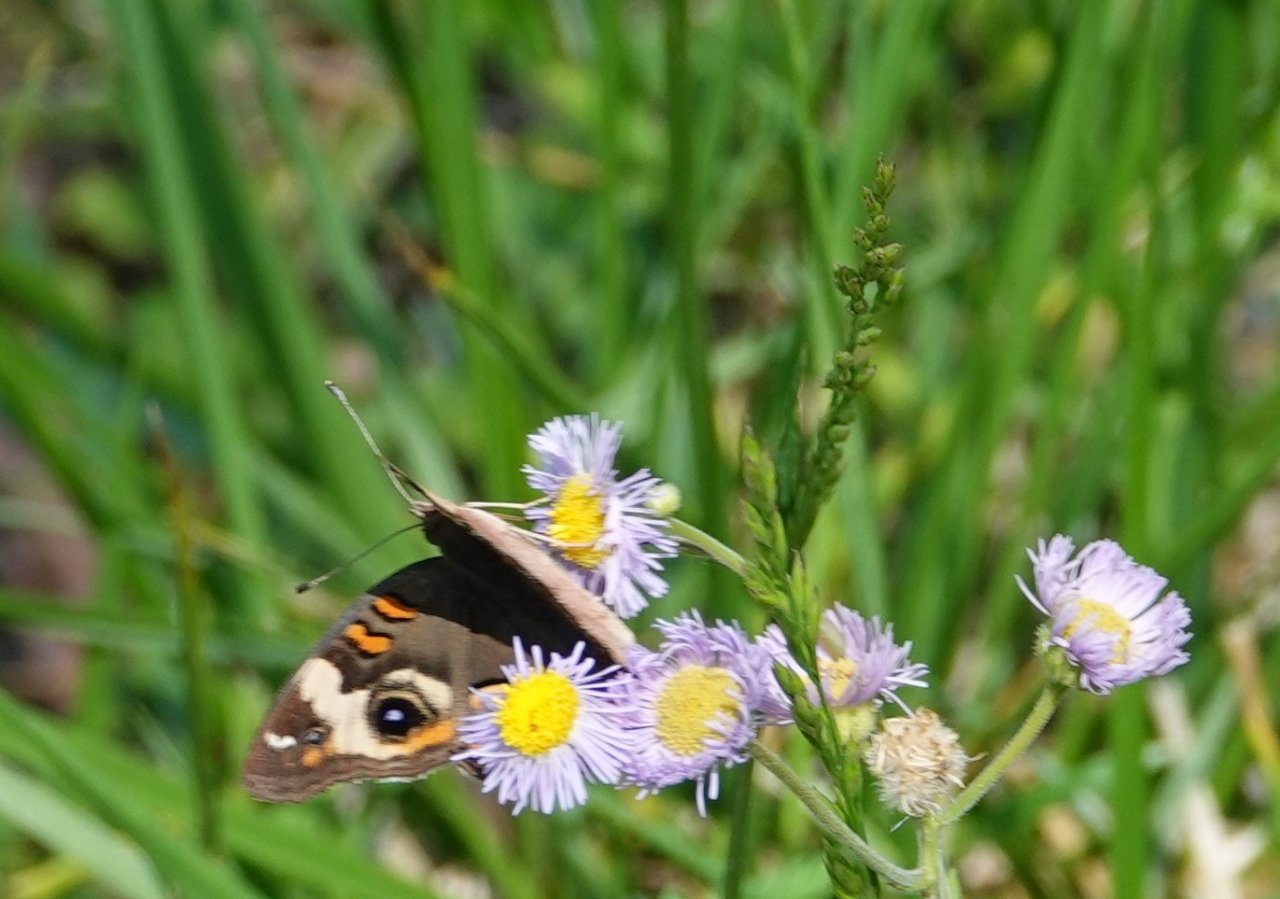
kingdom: Animalia
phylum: Arthropoda
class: Insecta
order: Lepidoptera
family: Nymphalidae
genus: Junonia
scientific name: Junonia coenia
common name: Common Buckeye
